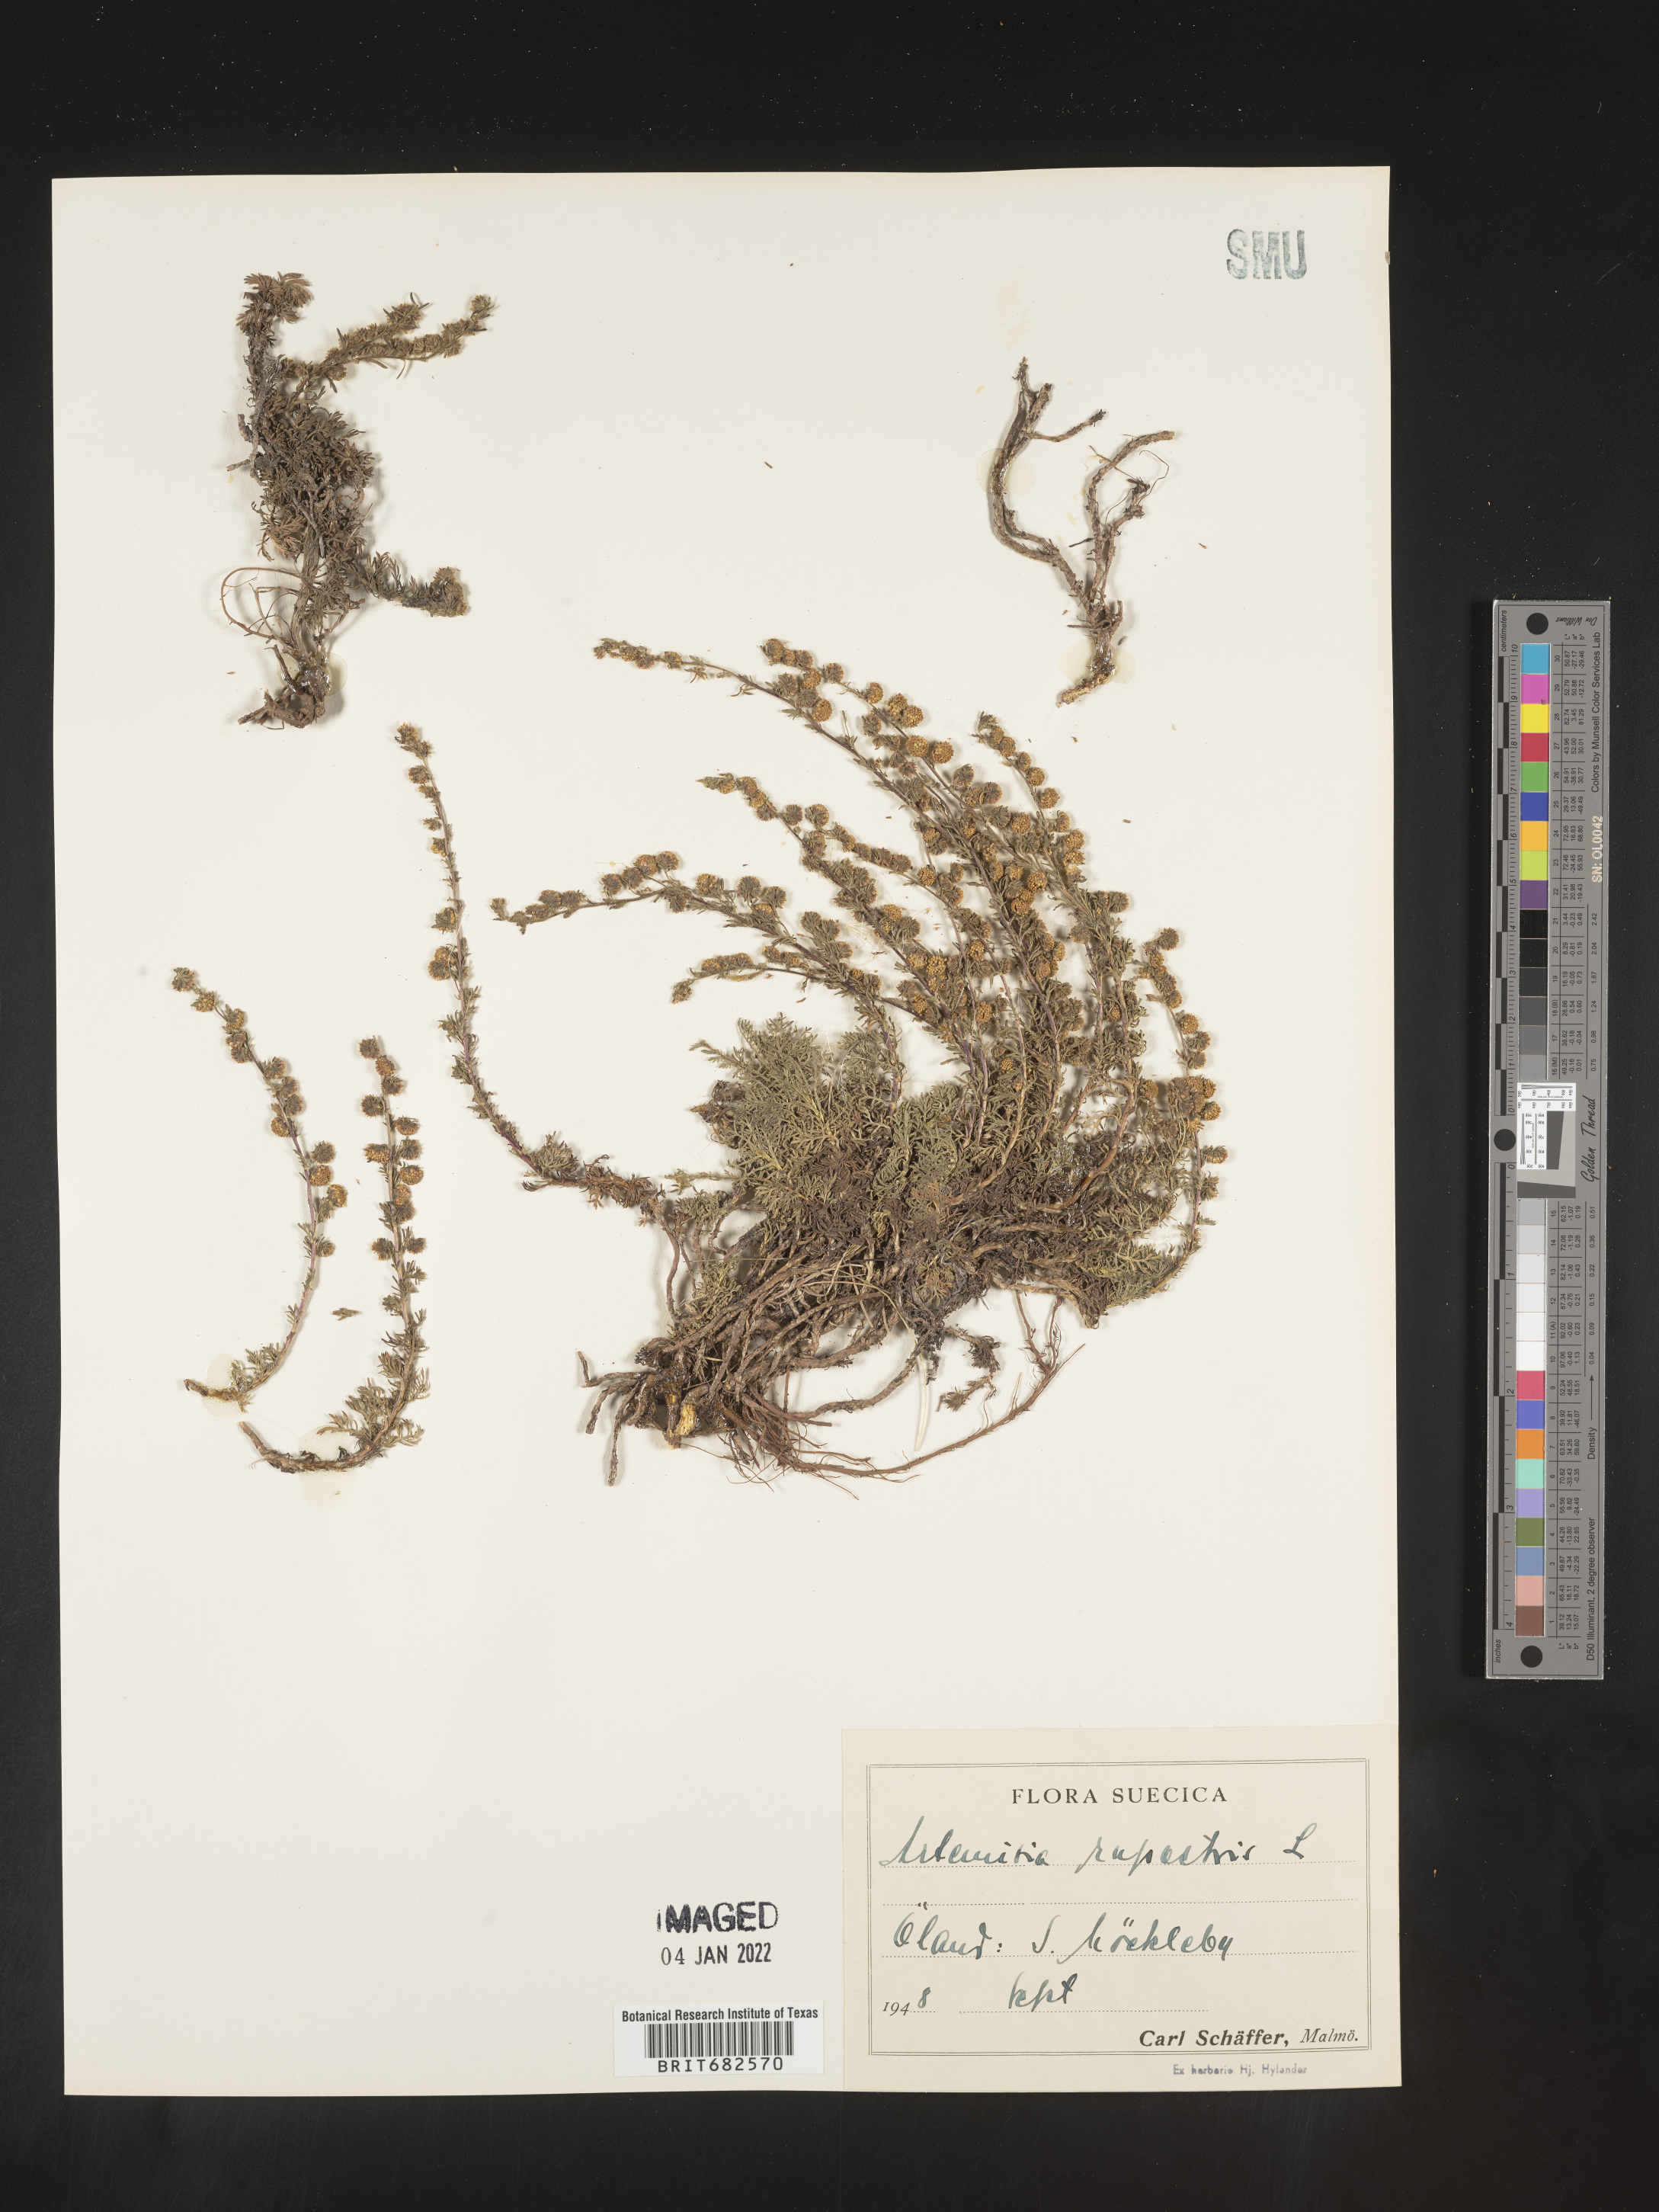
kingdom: Plantae
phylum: Tracheophyta
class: Magnoliopsida
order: Asterales
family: Asteraceae
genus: Artemisia
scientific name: Artemisia
